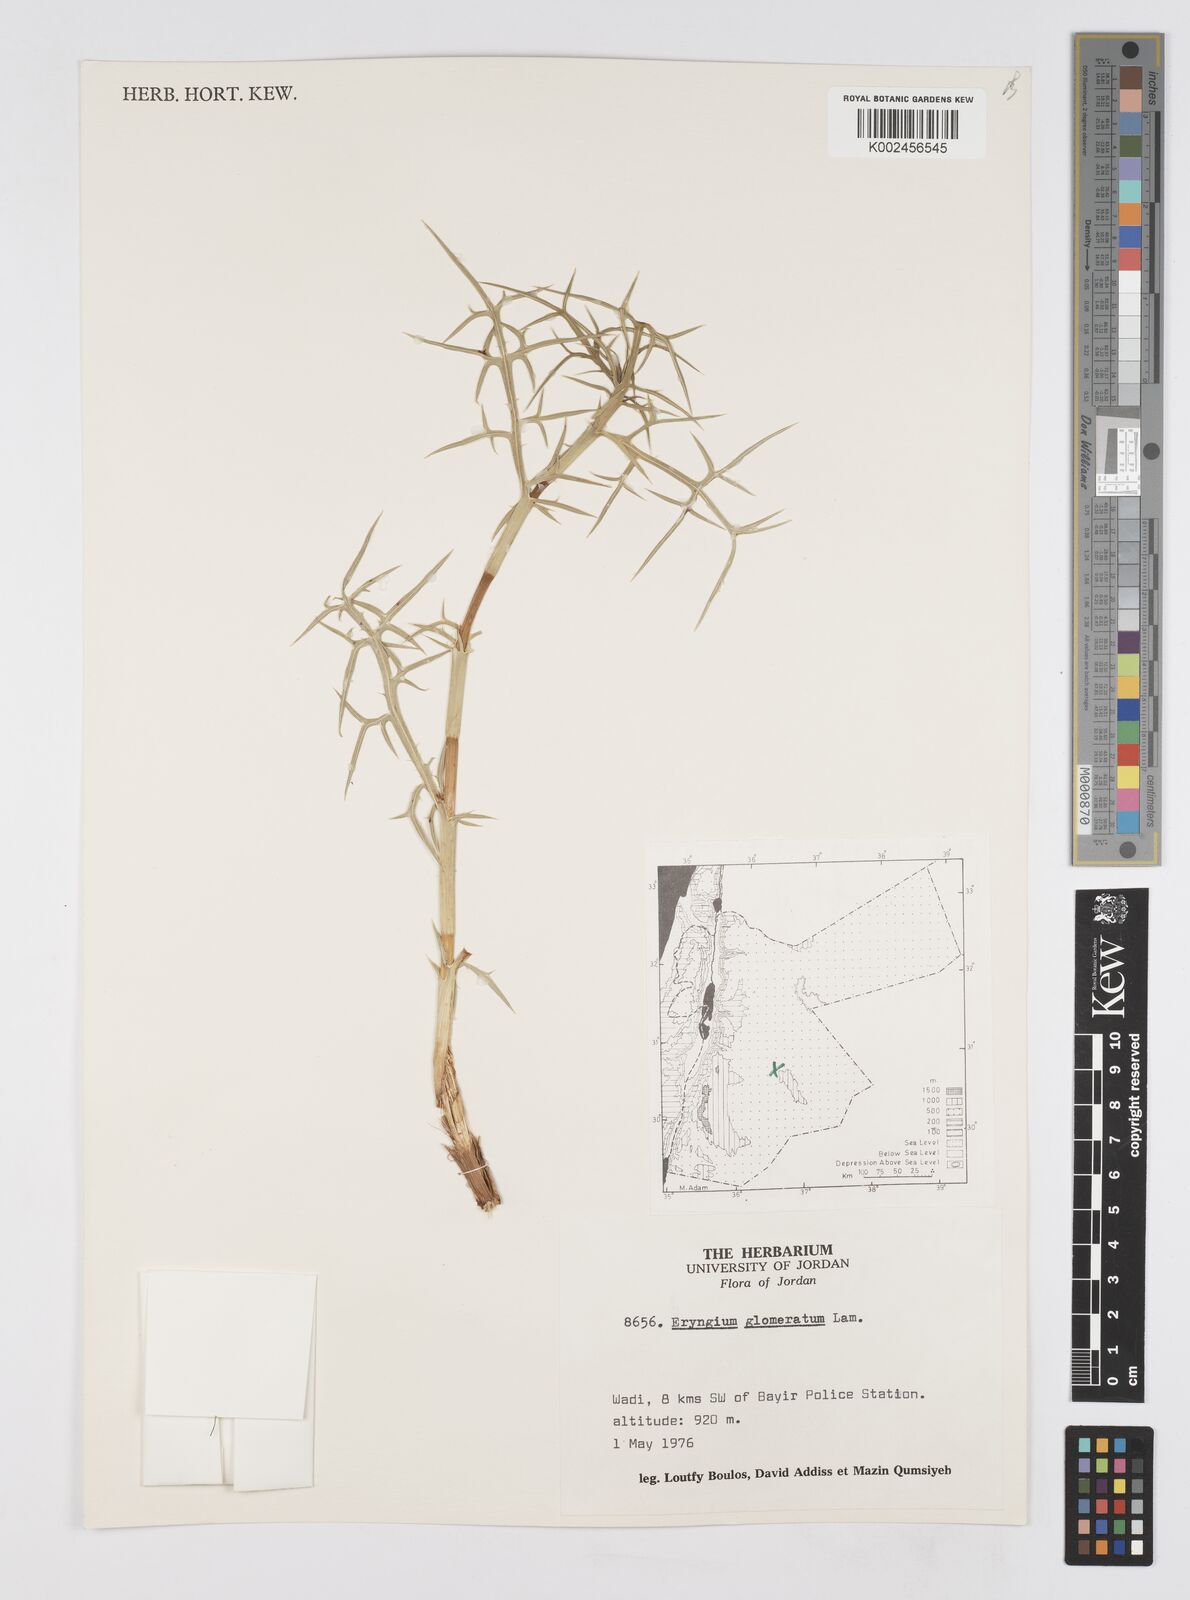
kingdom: Plantae
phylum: Tracheophyta
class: Magnoliopsida
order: Apiales
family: Apiaceae
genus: Eryngium
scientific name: Eryngium glomeratum
